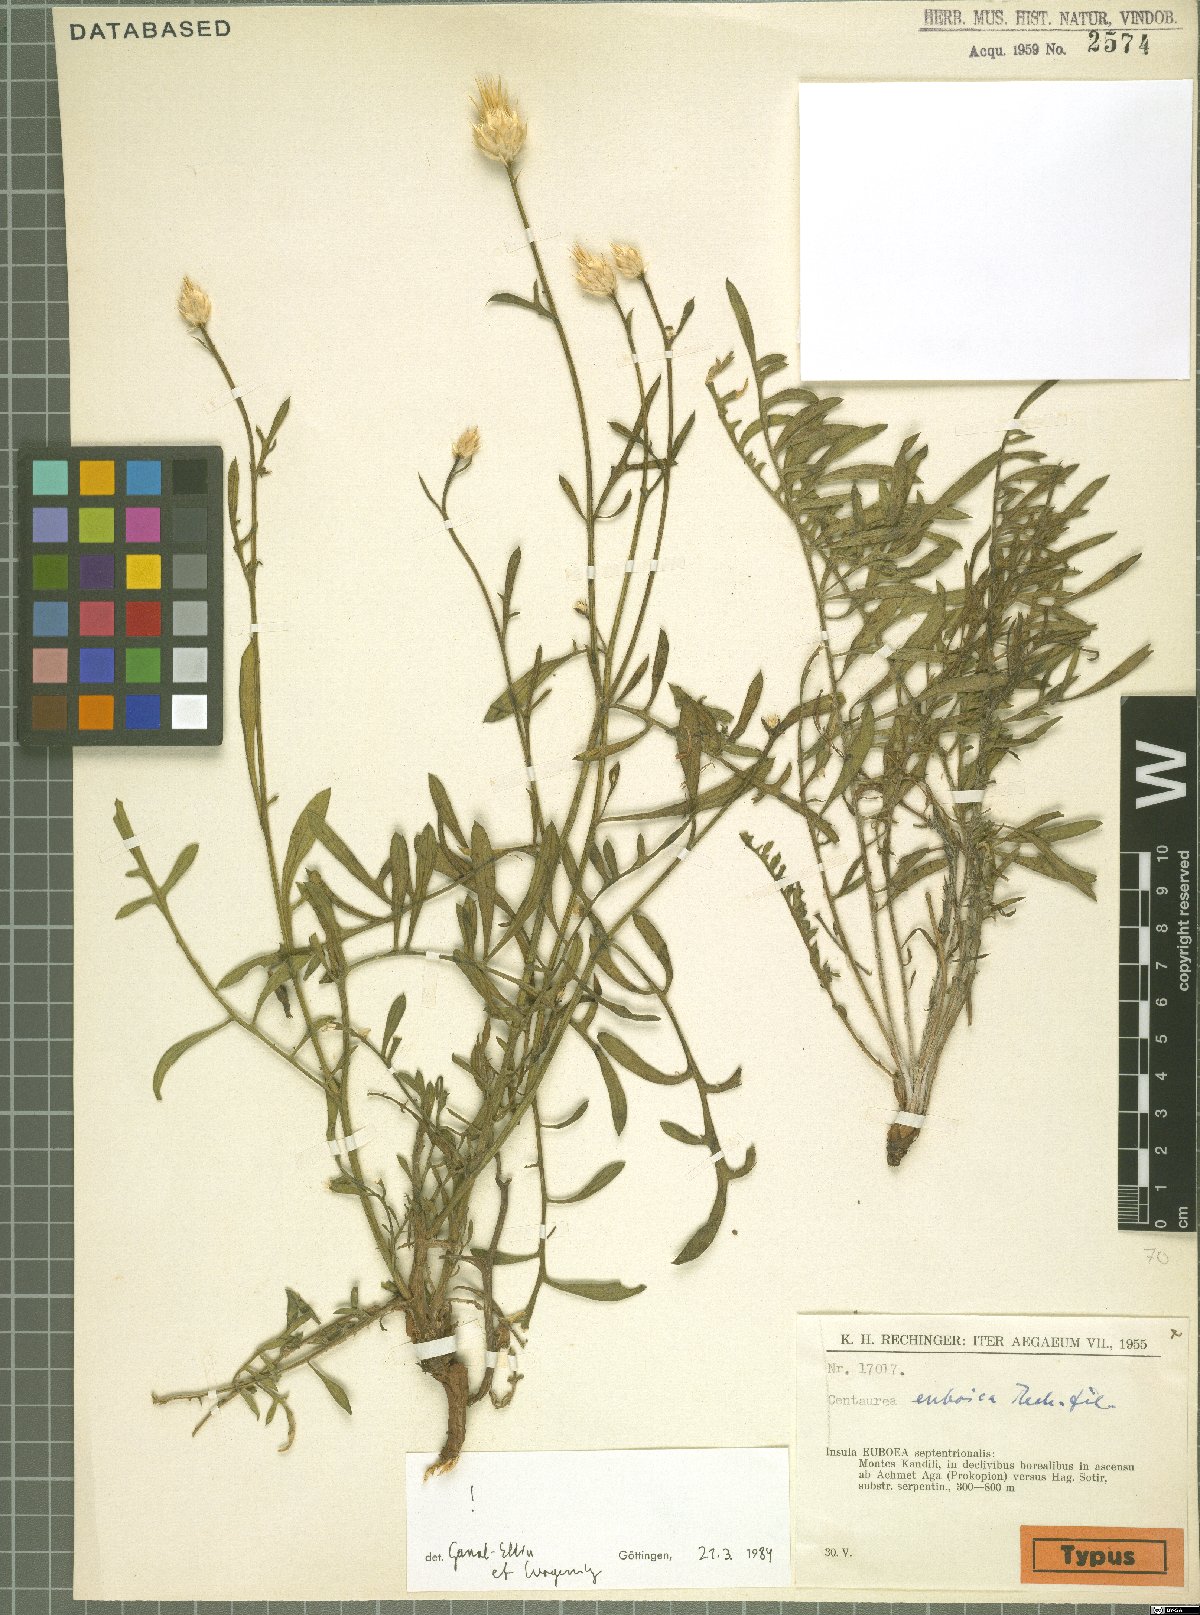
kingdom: Plantae
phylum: Tracheophyta
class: Magnoliopsida
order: Asterales
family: Asteraceae
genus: Centaurea
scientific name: Centaurea euboica
